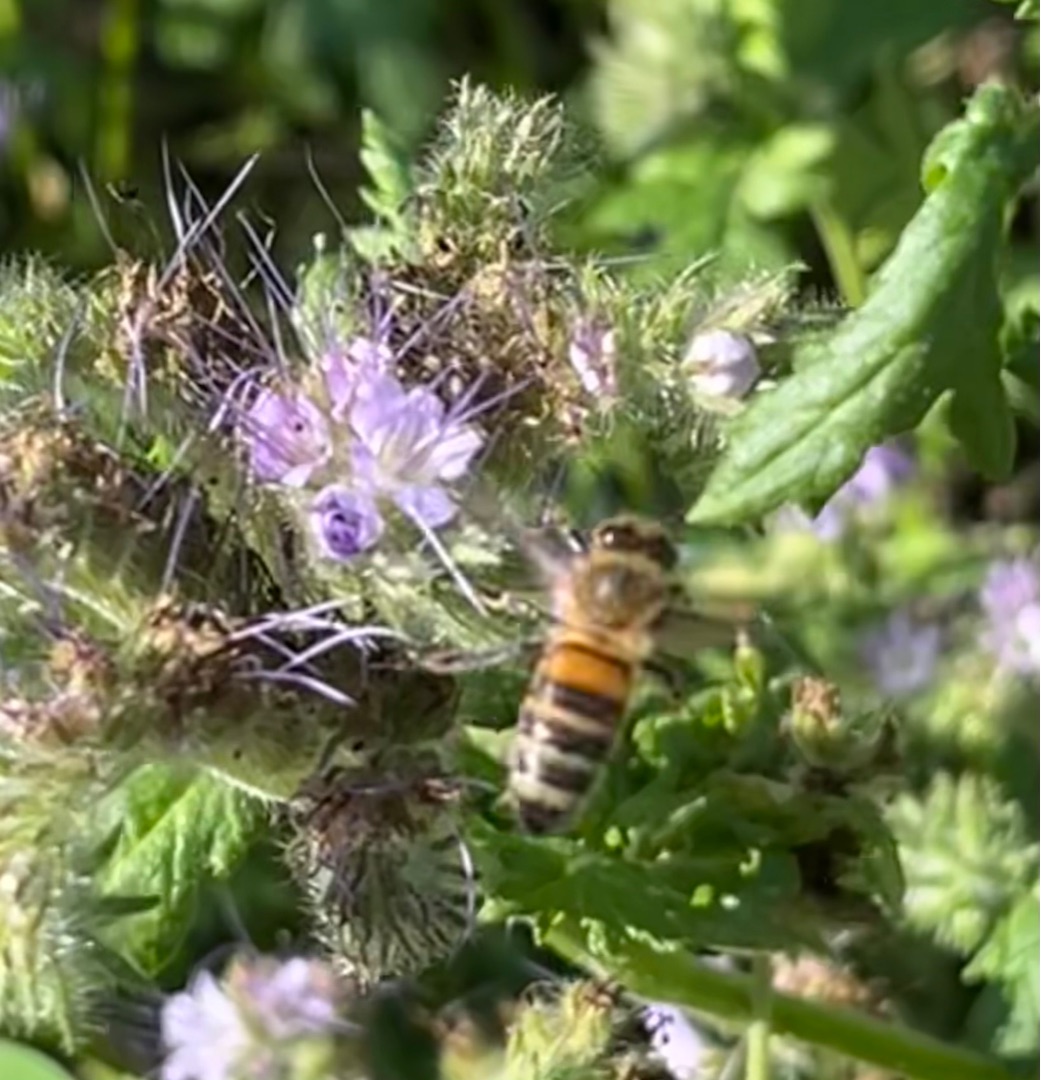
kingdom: Animalia
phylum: Arthropoda
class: Insecta
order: Hymenoptera
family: Apidae
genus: Apis
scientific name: Apis mellifera
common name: Honningbi
